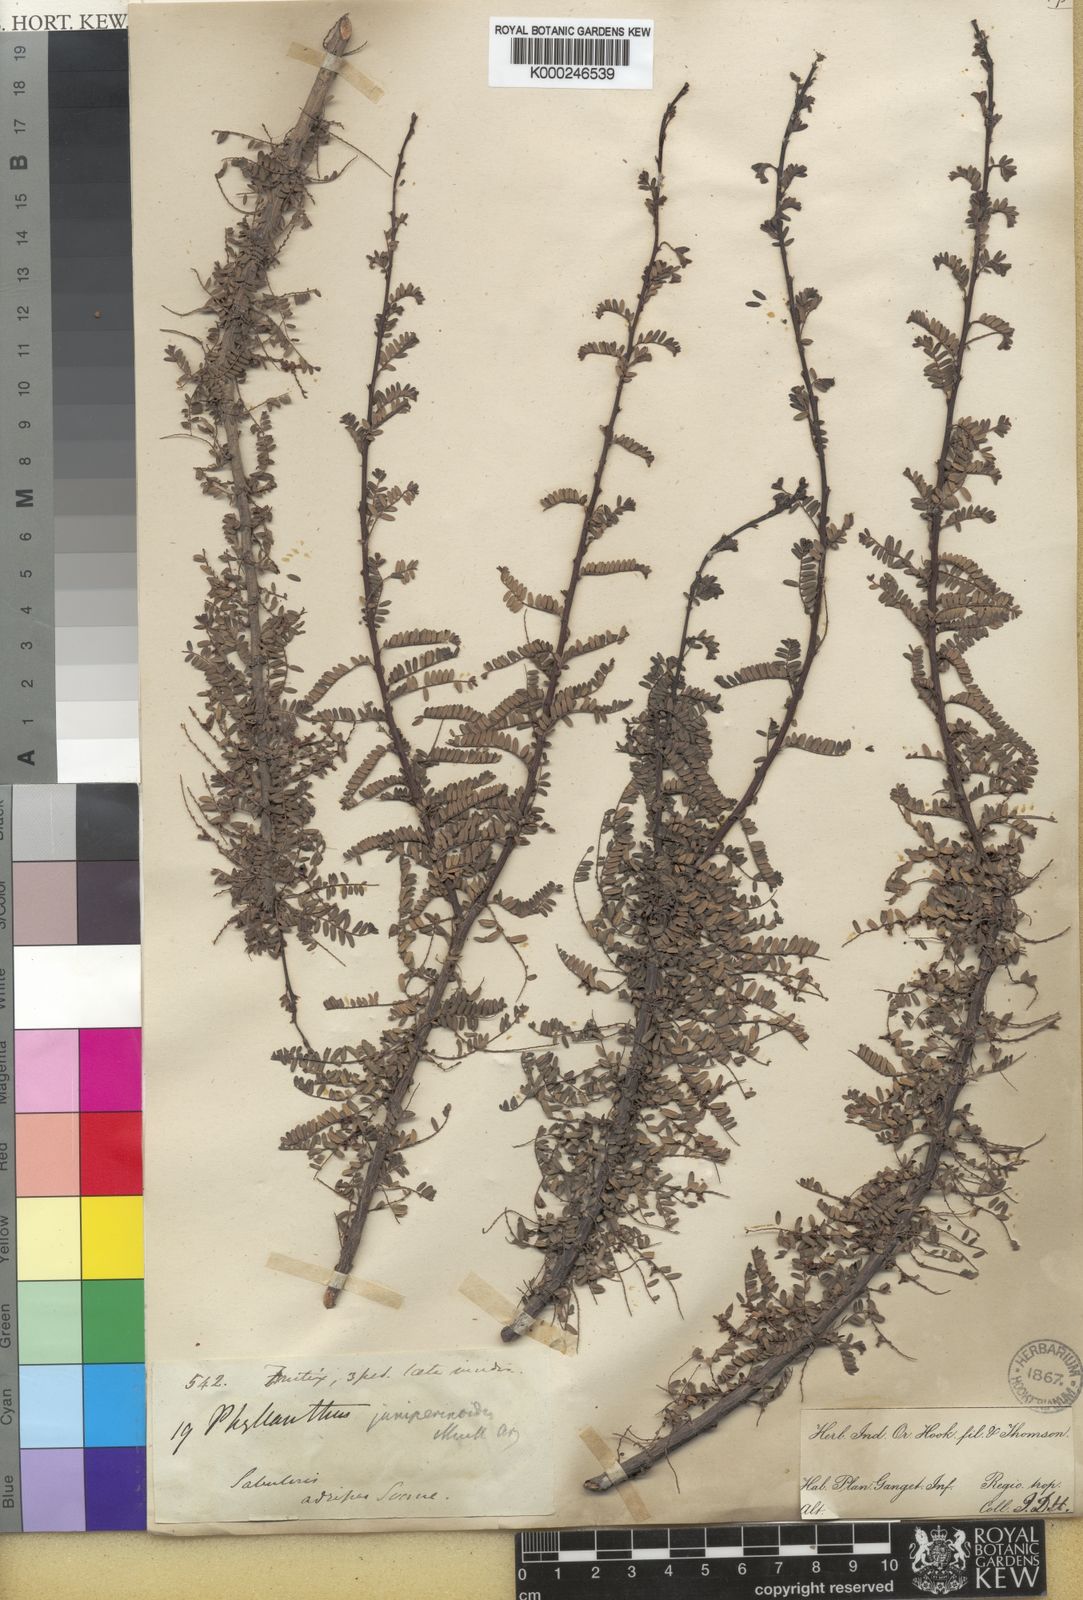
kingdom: Plantae
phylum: Tracheophyta
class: Magnoliopsida
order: Malpighiales
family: Phyllanthaceae
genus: Phyllanthus
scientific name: Phyllanthus lawii
